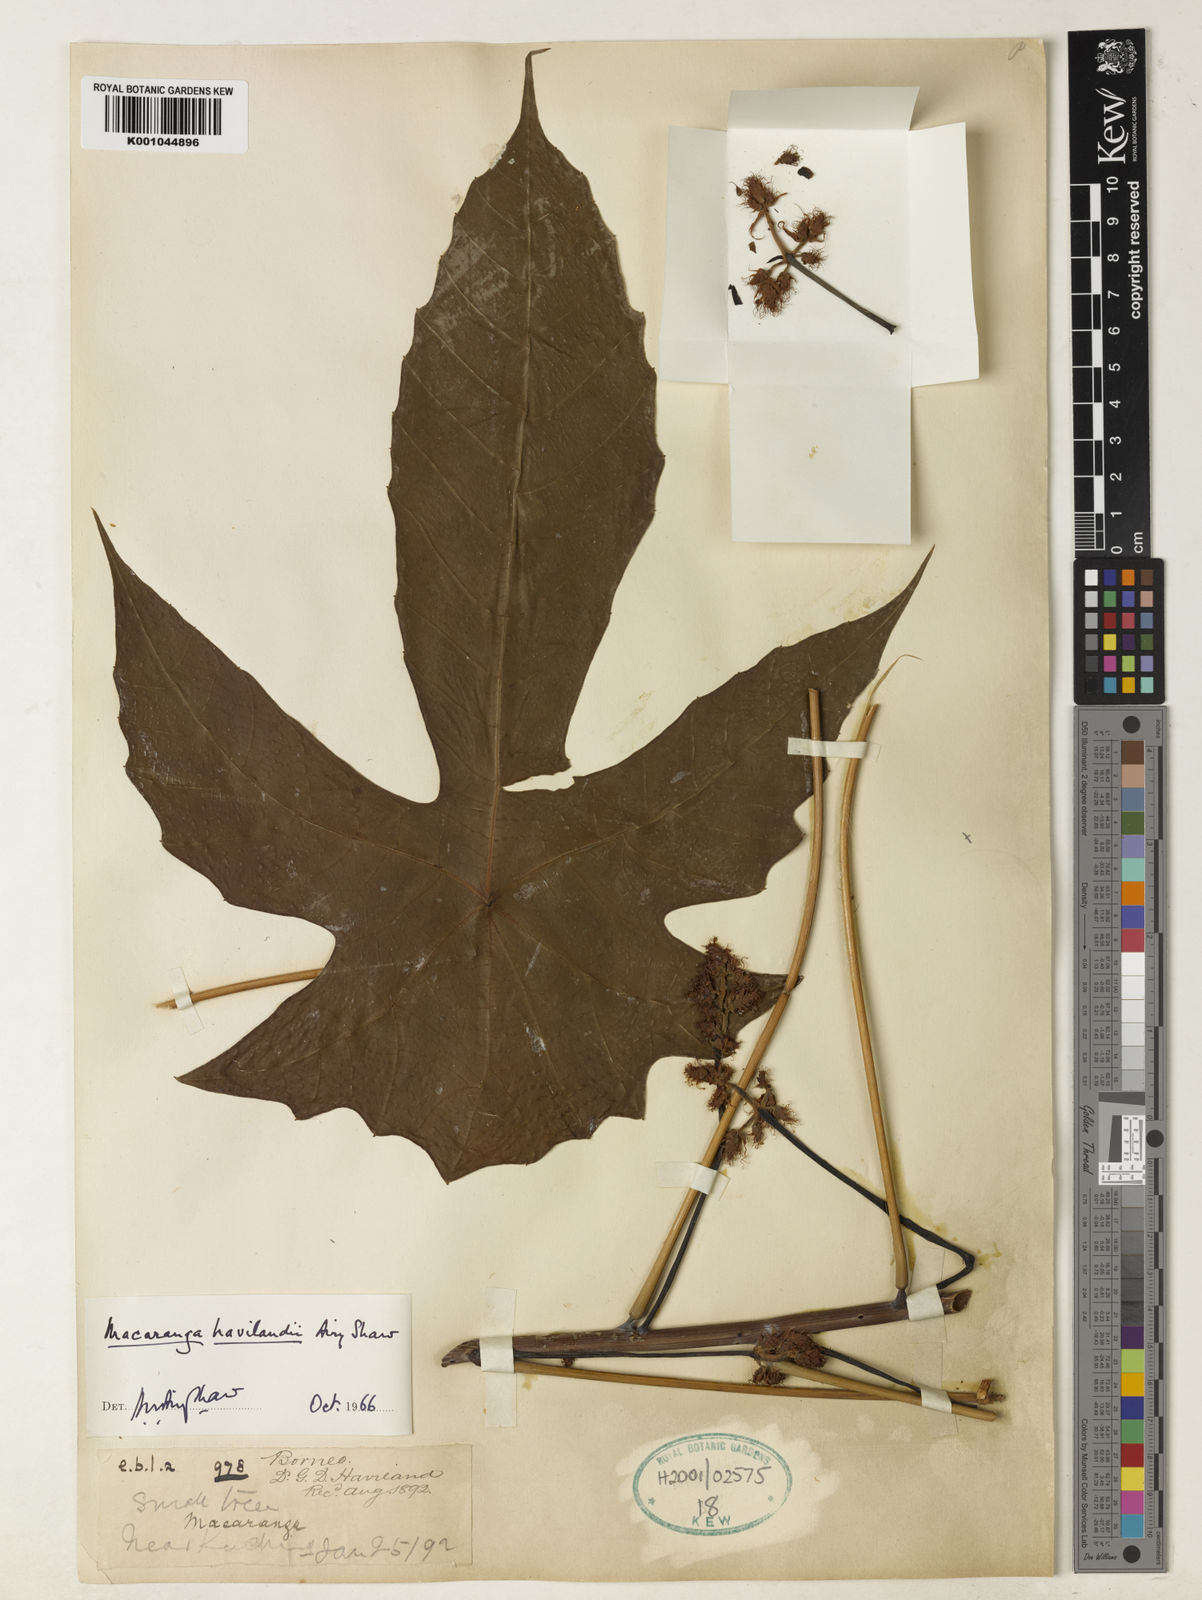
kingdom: Plantae
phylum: Tracheophyta
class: Magnoliopsida
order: Malpighiales
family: Euphorbiaceae
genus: Macaranga
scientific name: Macaranga havilandii
